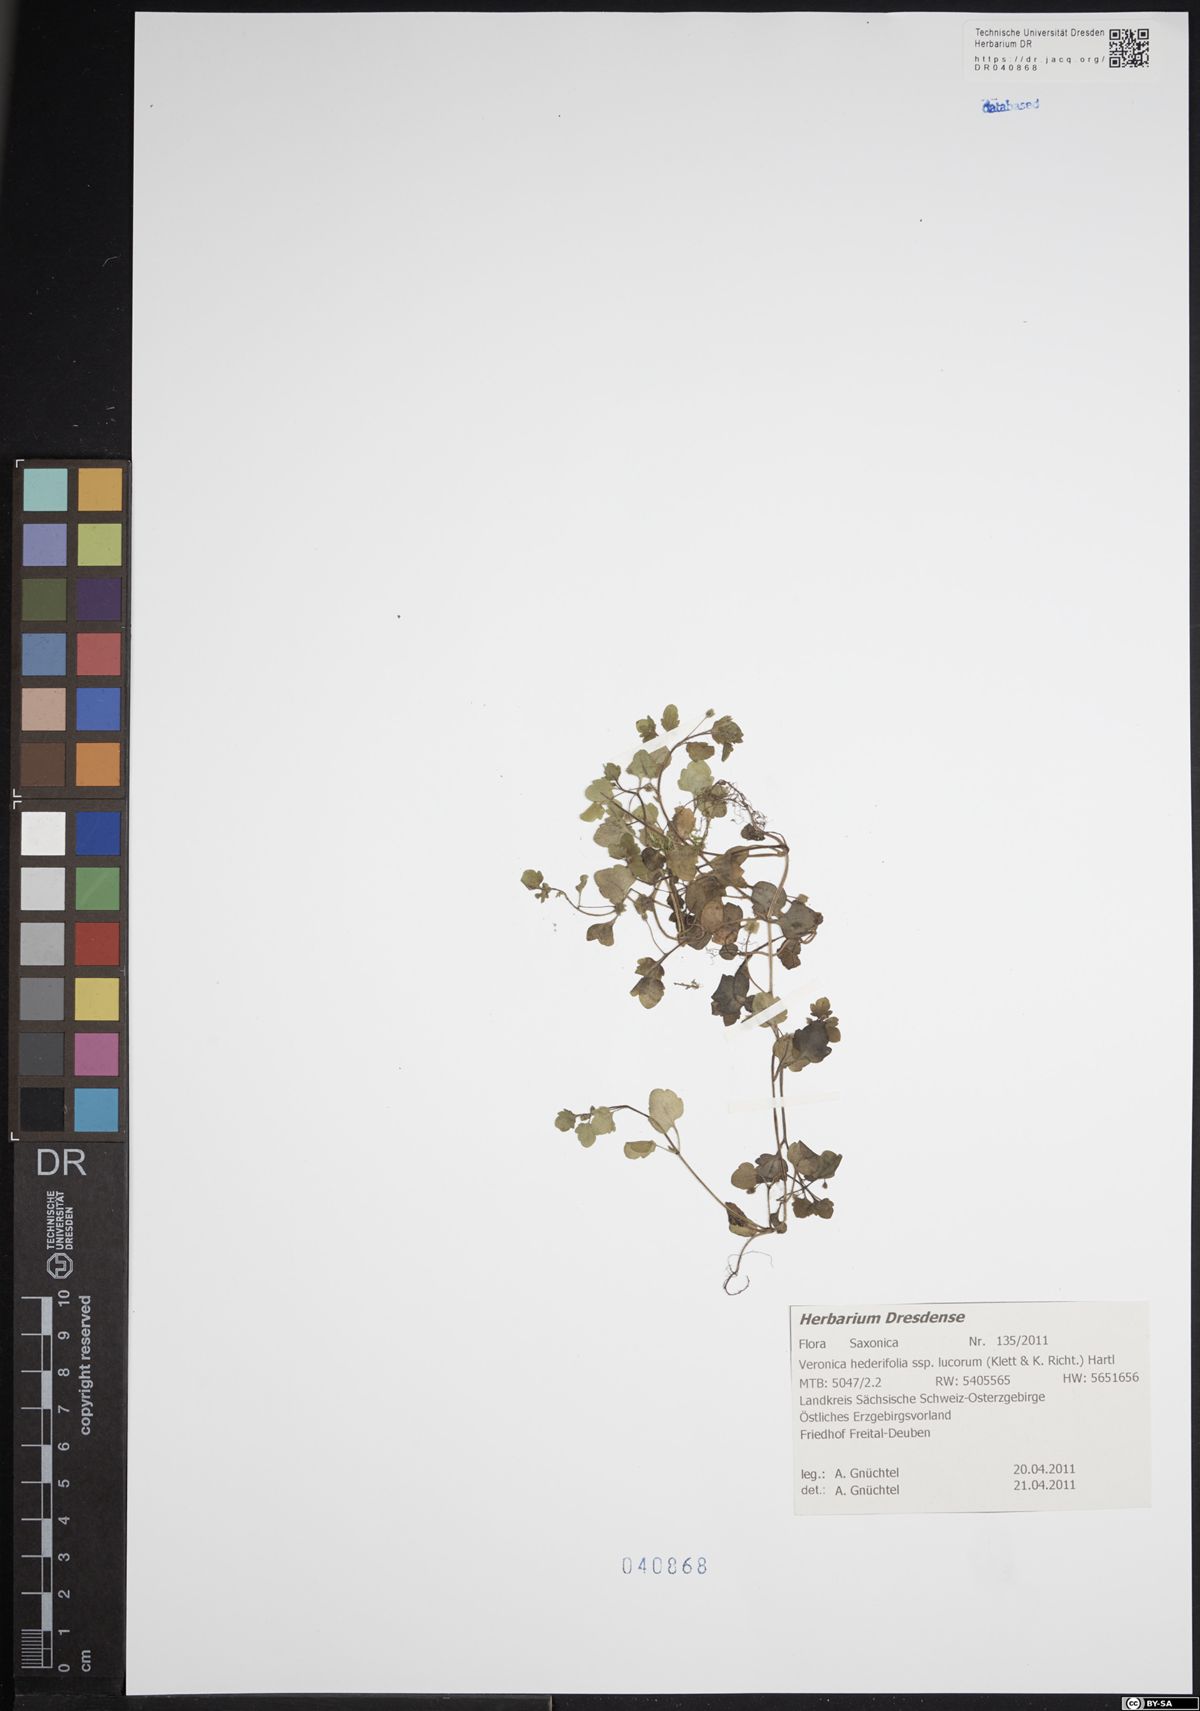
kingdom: Plantae
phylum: Tracheophyta
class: Magnoliopsida
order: Lamiales
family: Plantaginaceae
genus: Veronica
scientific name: Veronica hederifolia
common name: Ivy-leaved speedwell
